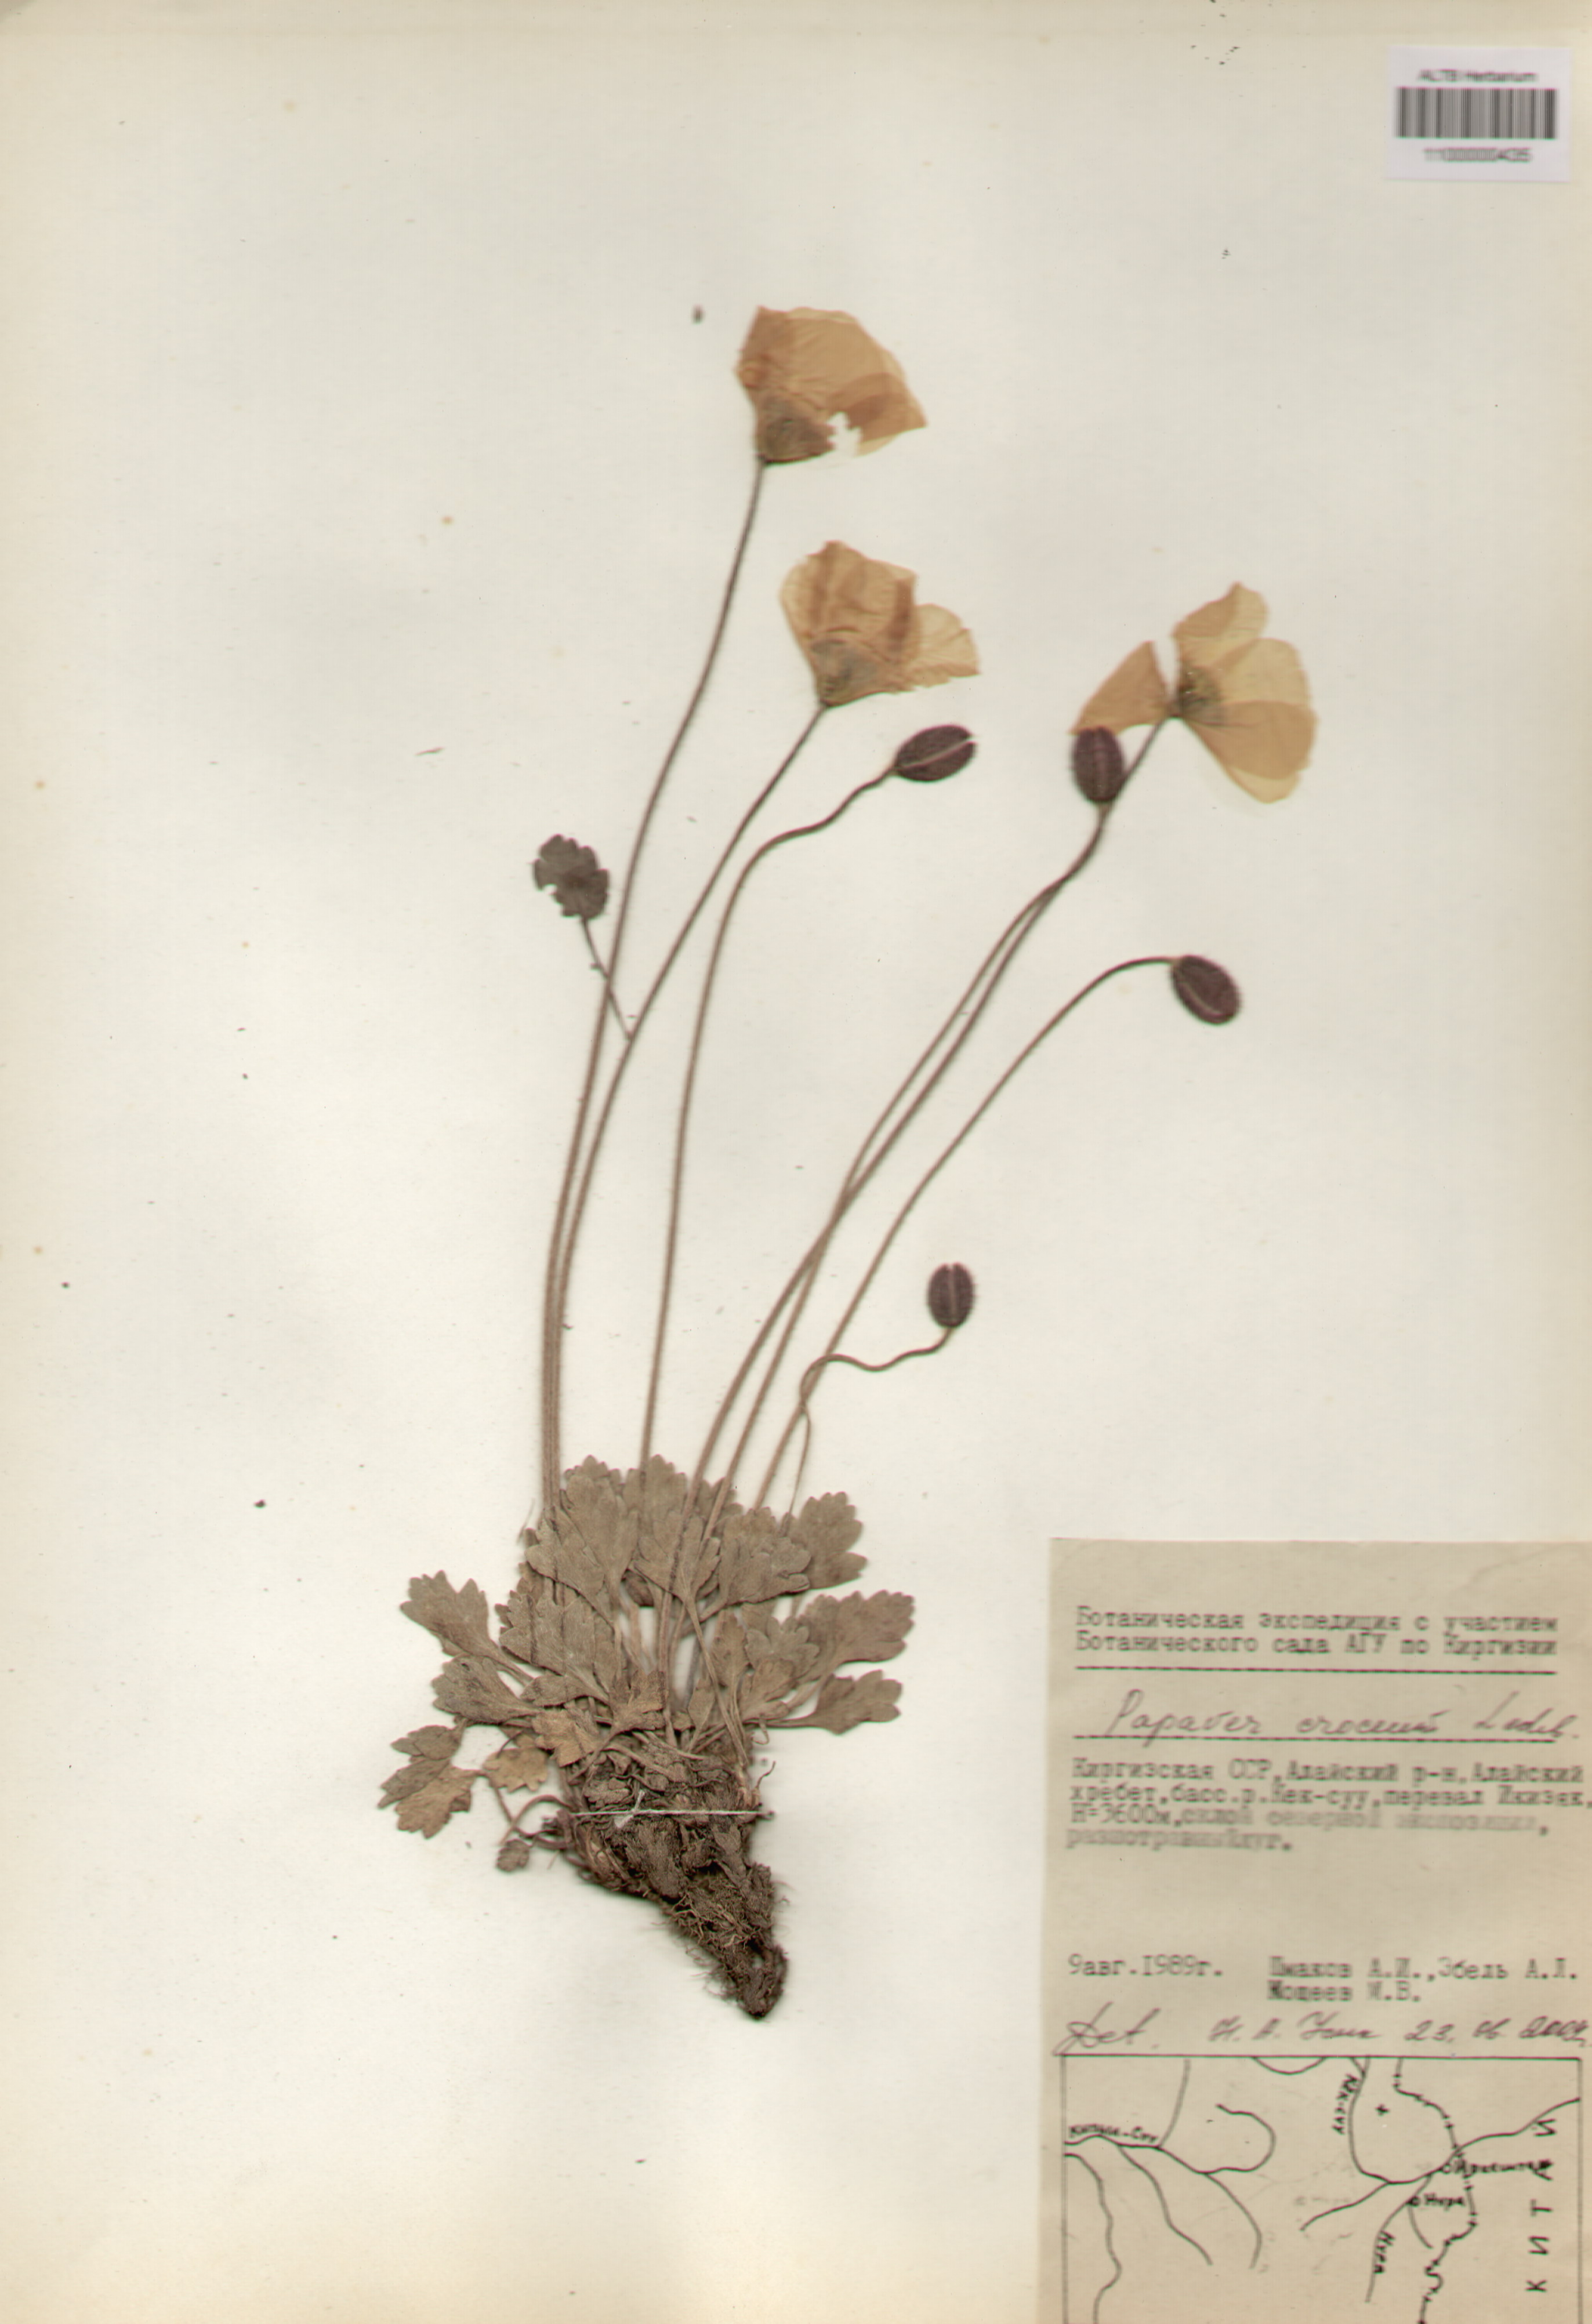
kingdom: Plantae
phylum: Tracheophyta
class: Magnoliopsida
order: Ranunculales
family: Papaveraceae
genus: Papaver
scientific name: Papaver croceum
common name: Siberian poppy
